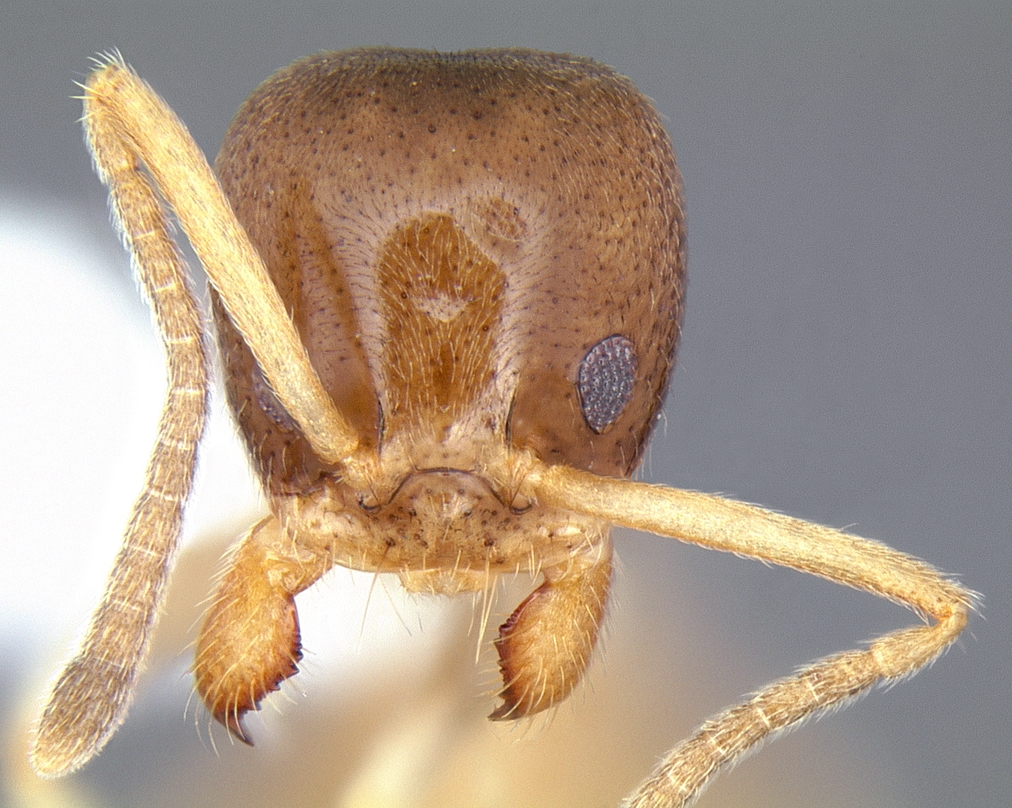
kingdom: Animalia
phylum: Arthropoda
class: Insecta
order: Hymenoptera
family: Formicidae
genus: Linepithema
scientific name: Linepithema keiteli
